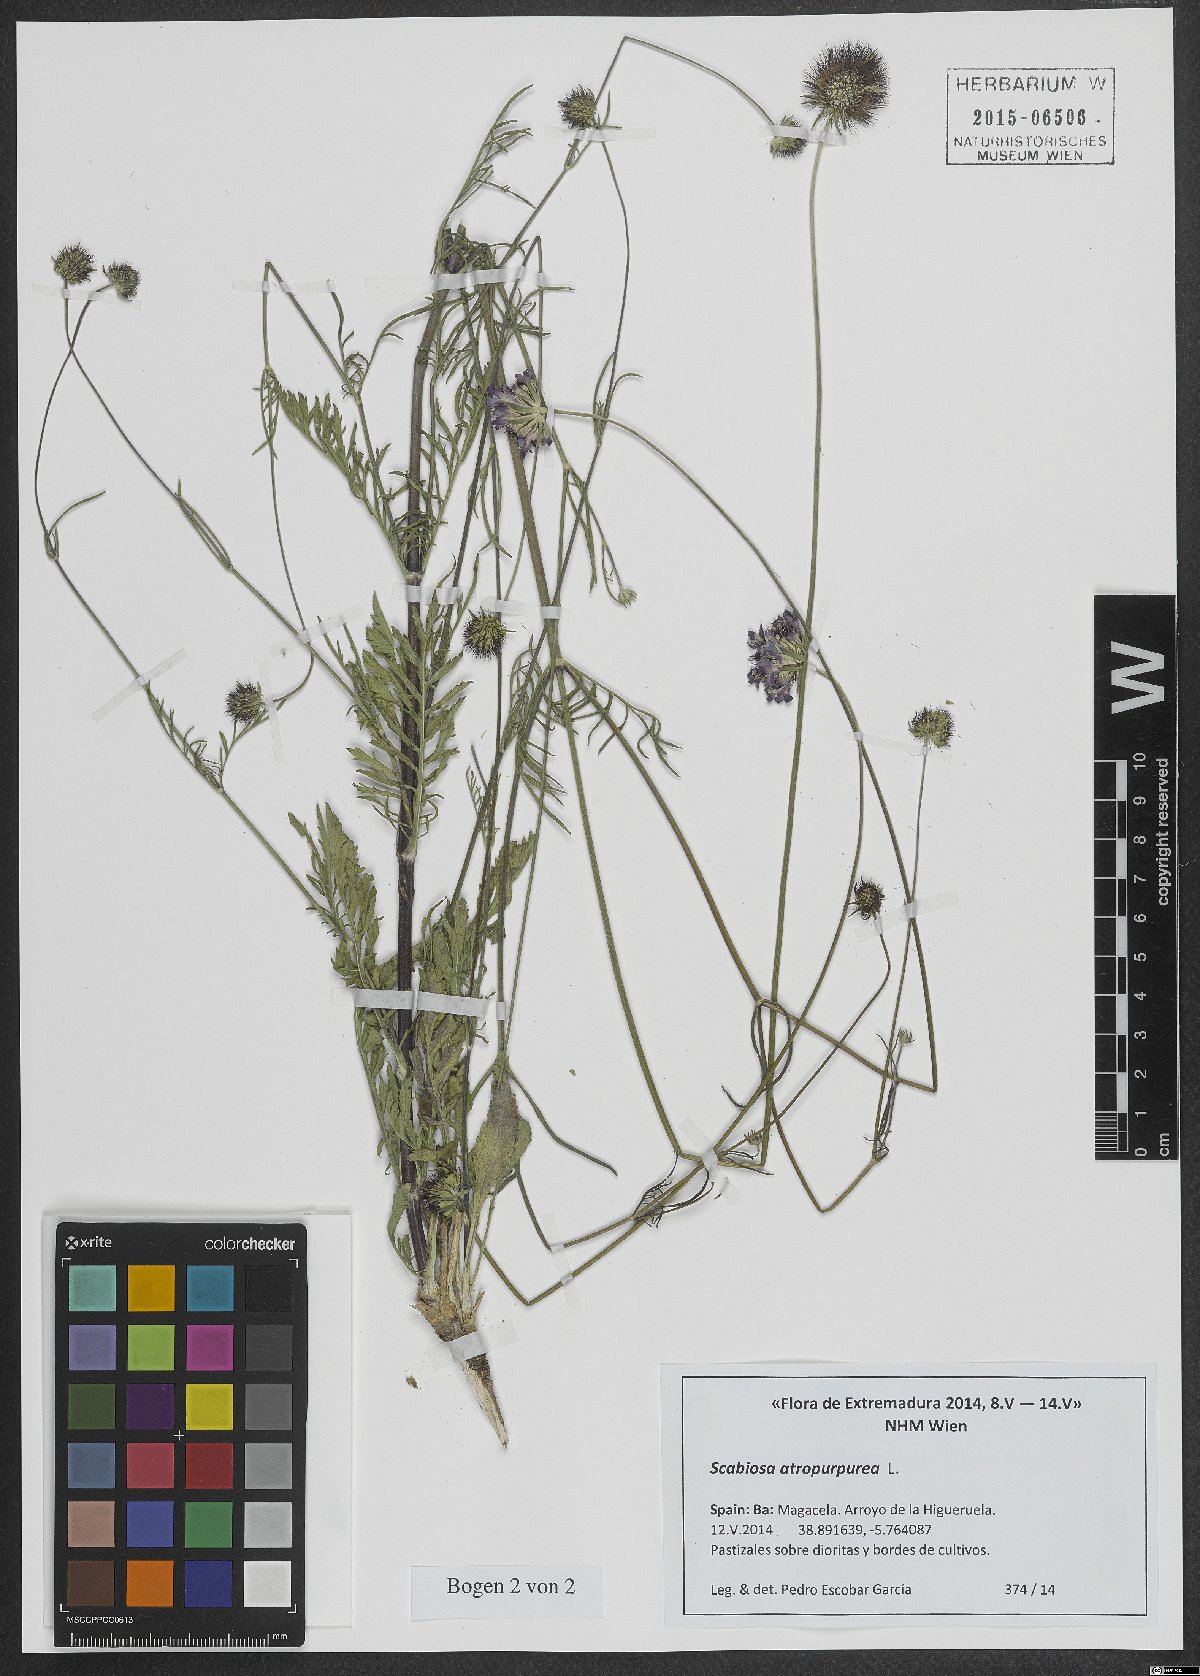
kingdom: Plantae
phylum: Tracheophyta
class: Magnoliopsida
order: Dipsacales
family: Caprifoliaceae
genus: Sixalix
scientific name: Sixalix atropurpurea
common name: Sweet scabious
